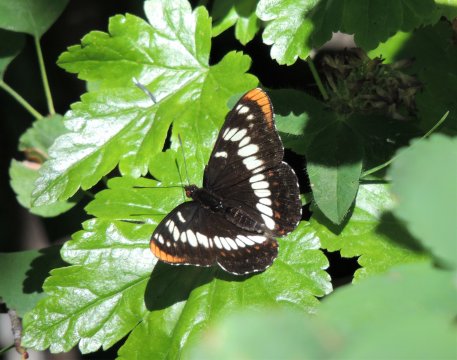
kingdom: Animalia
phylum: Arthropoda
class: Insecta
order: Lepidoptera
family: Nymphalidae
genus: Limenitis
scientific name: Limenitis lorquini
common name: Lorquin's Admiral
